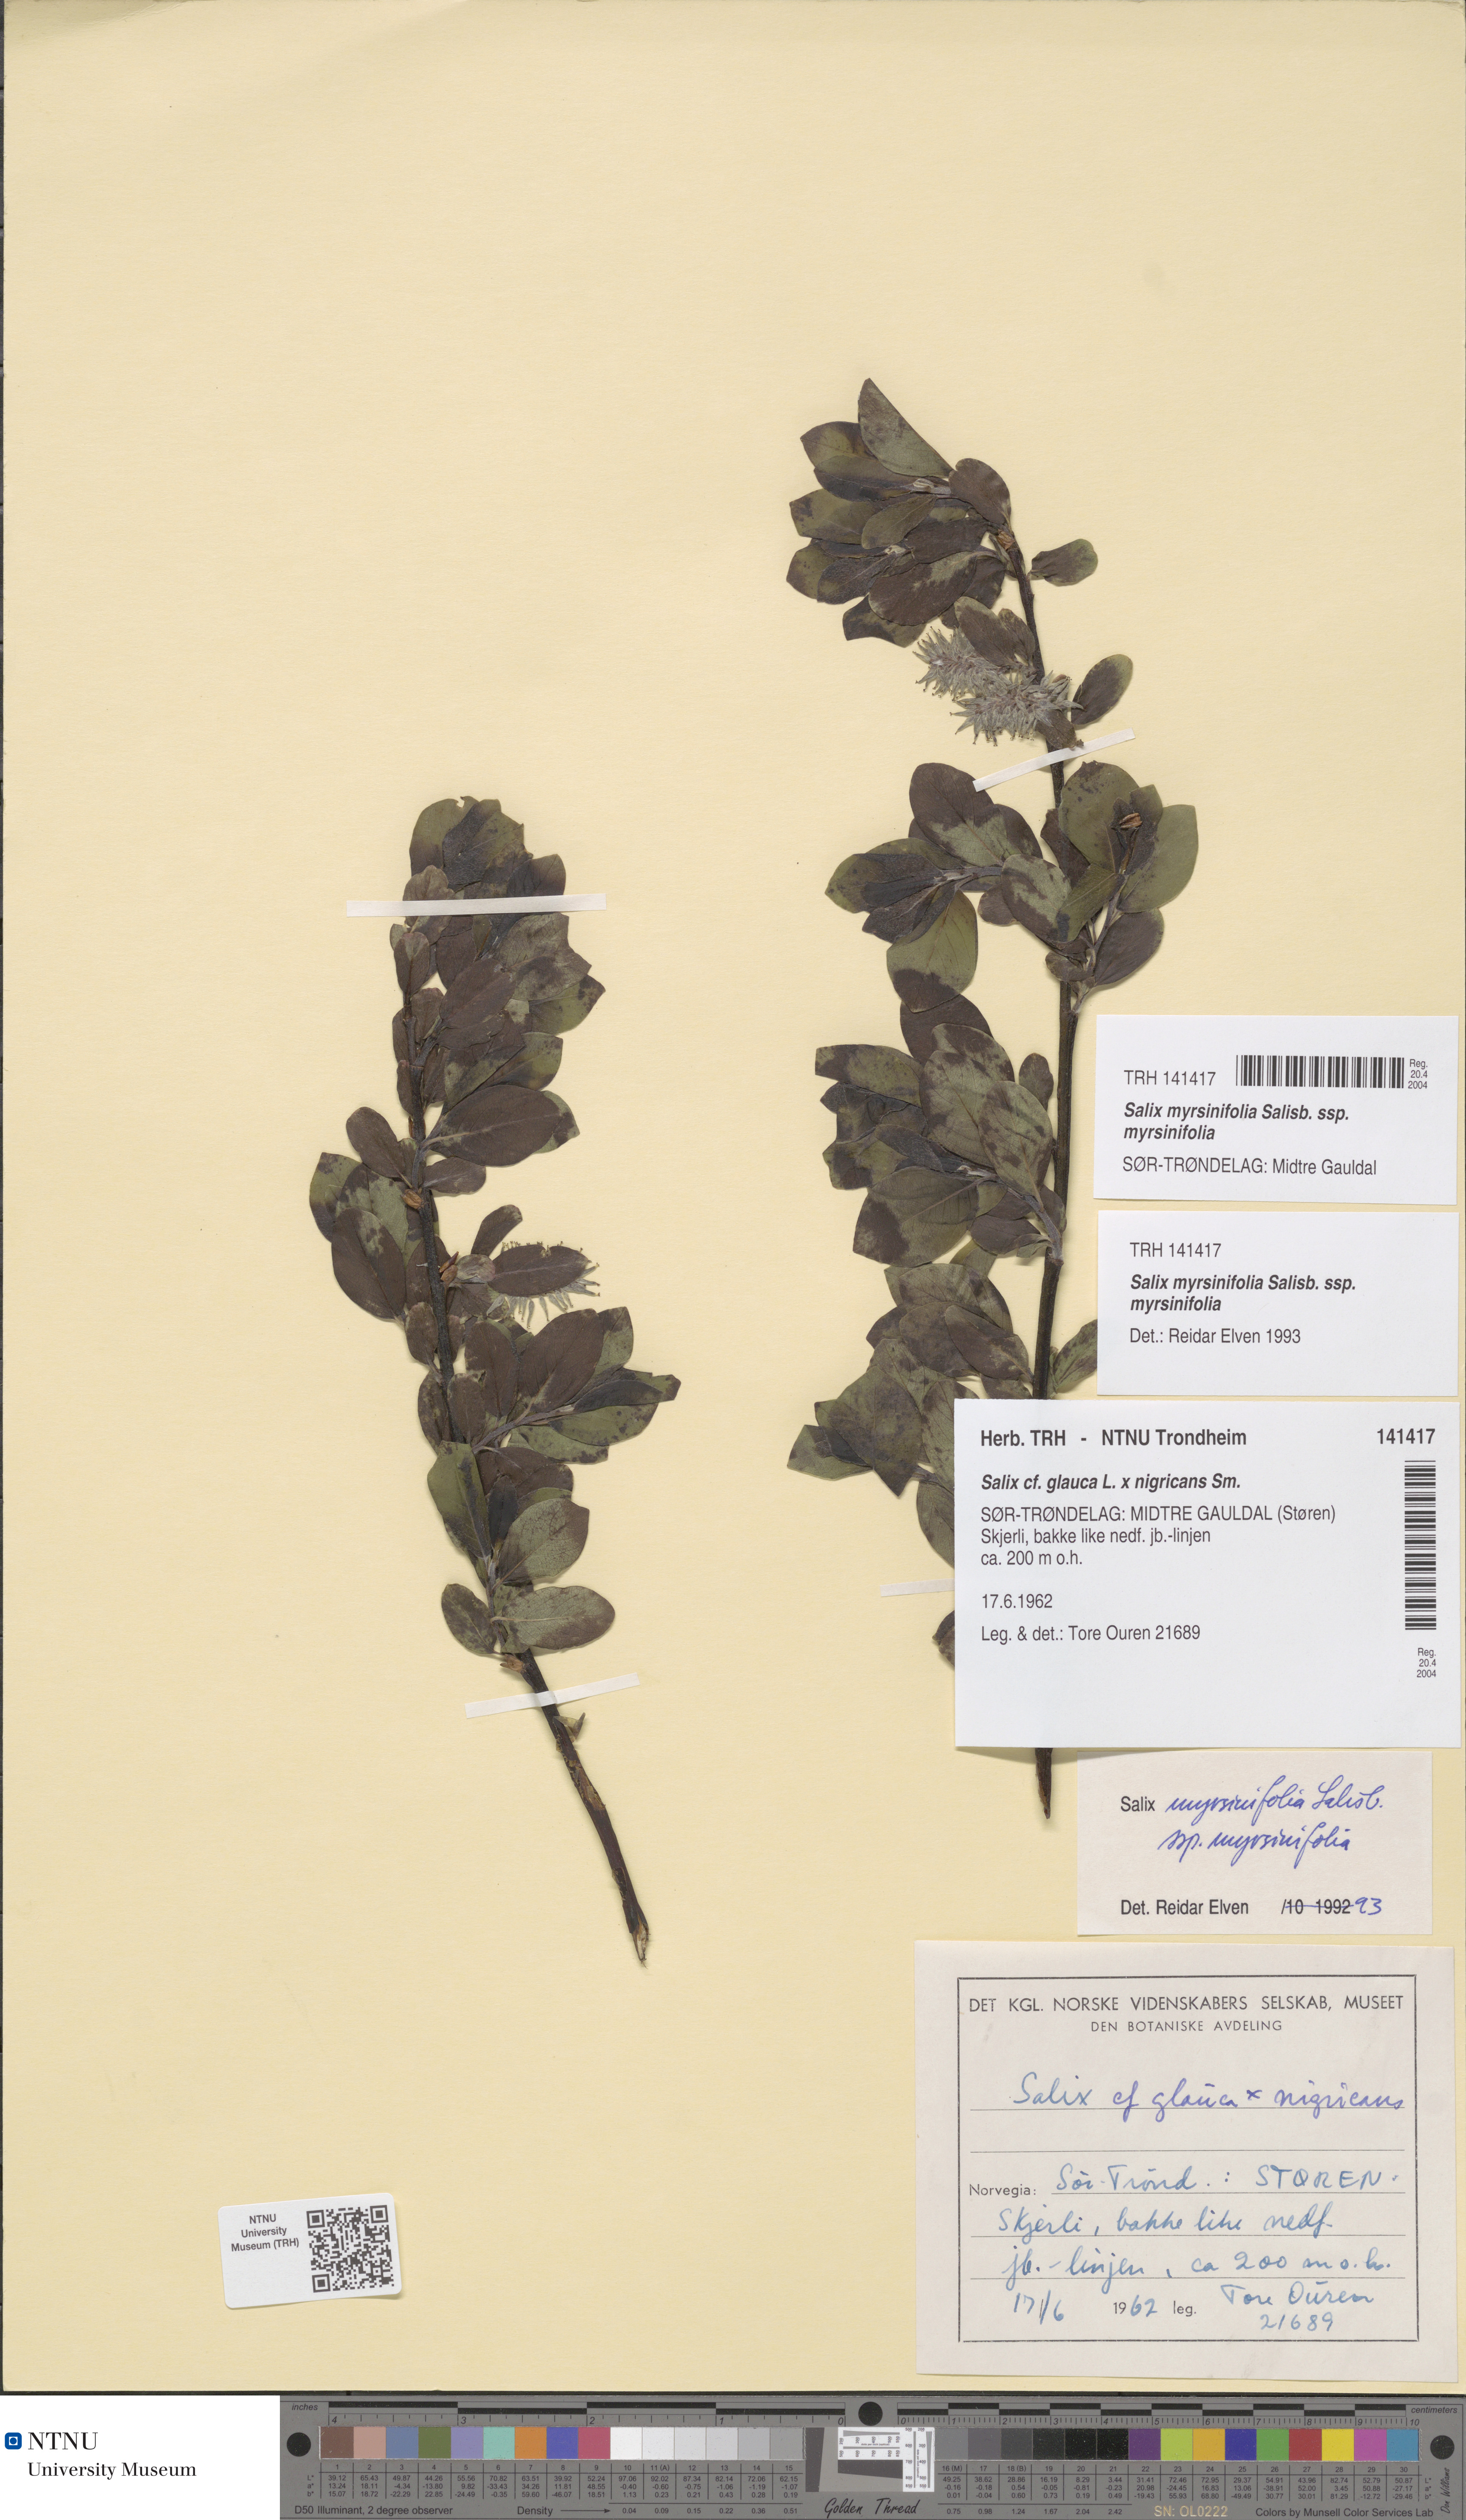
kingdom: Plantae
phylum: Tracheophyta
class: Magnoliopsida
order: Malpighiales
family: Salicaceae
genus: Salix
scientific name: Salix myrsinifolia
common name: Dark-leaved willow
